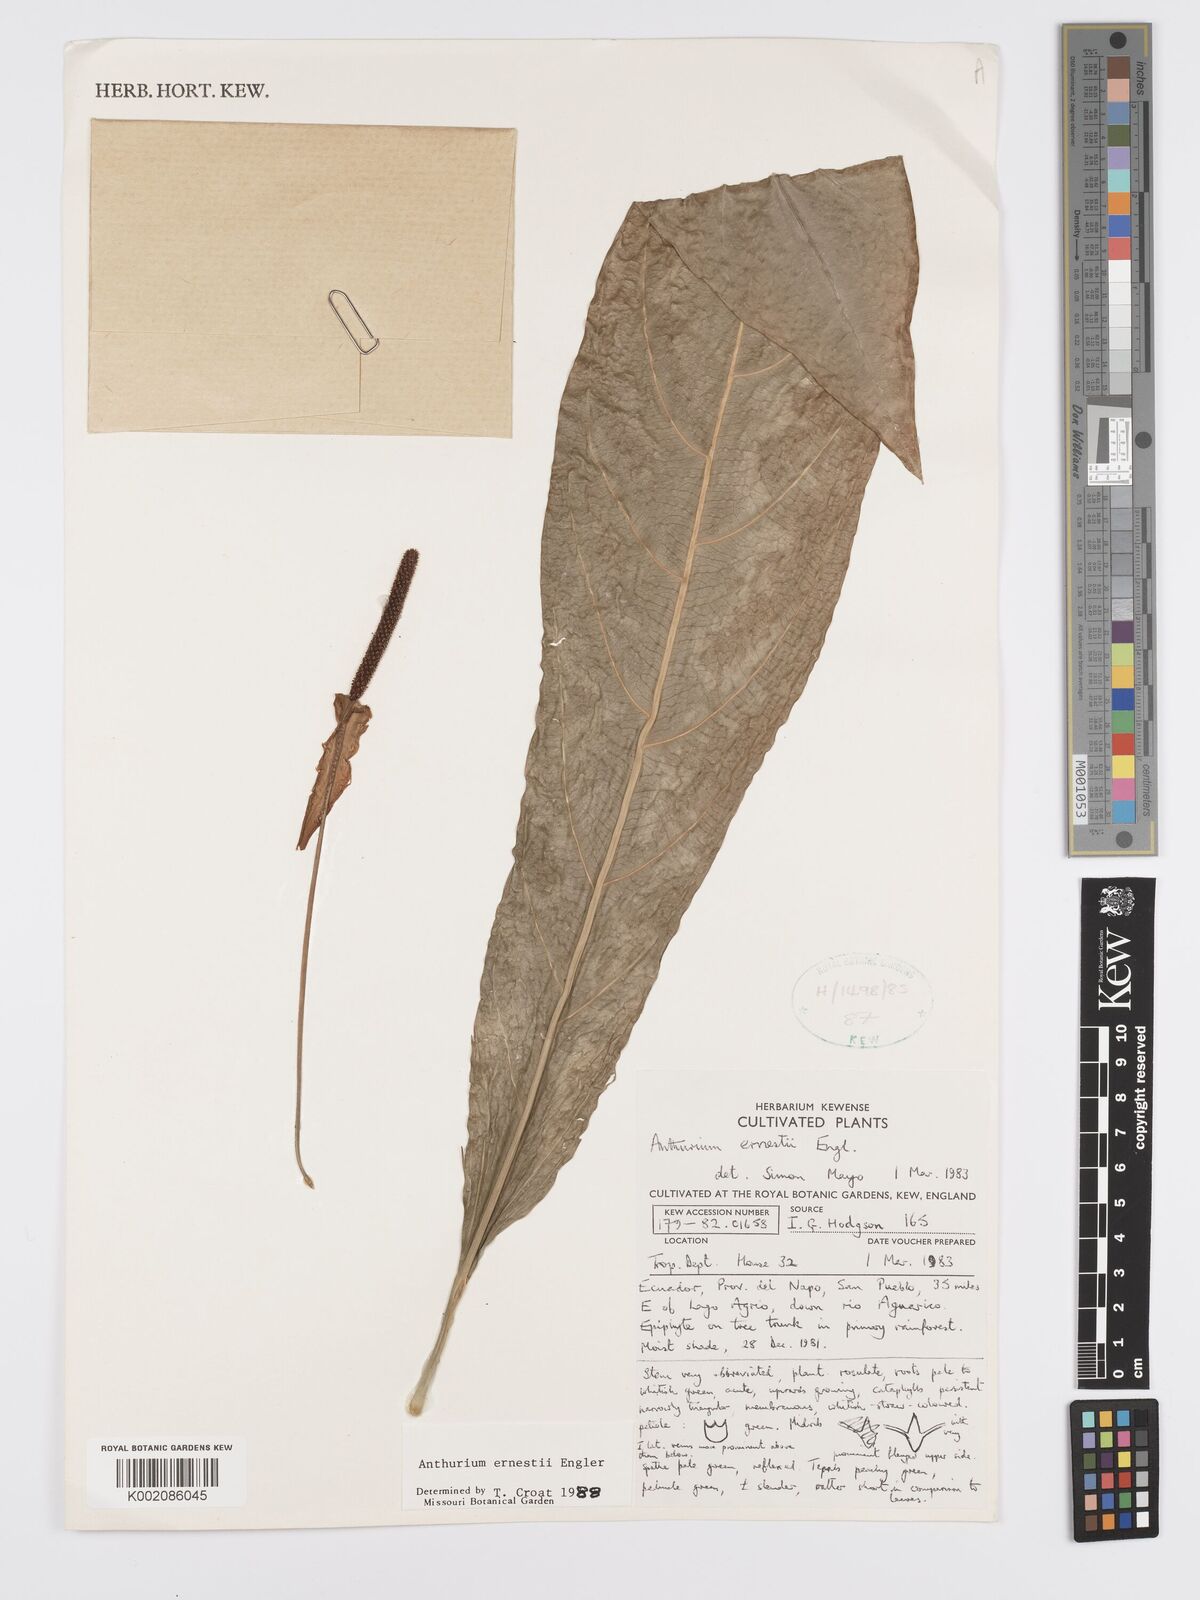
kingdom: Plantae
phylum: Tracheophyta
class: Liliopsida
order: Alismatales
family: Araceae
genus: Anthurium
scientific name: Anthurium ernesti
